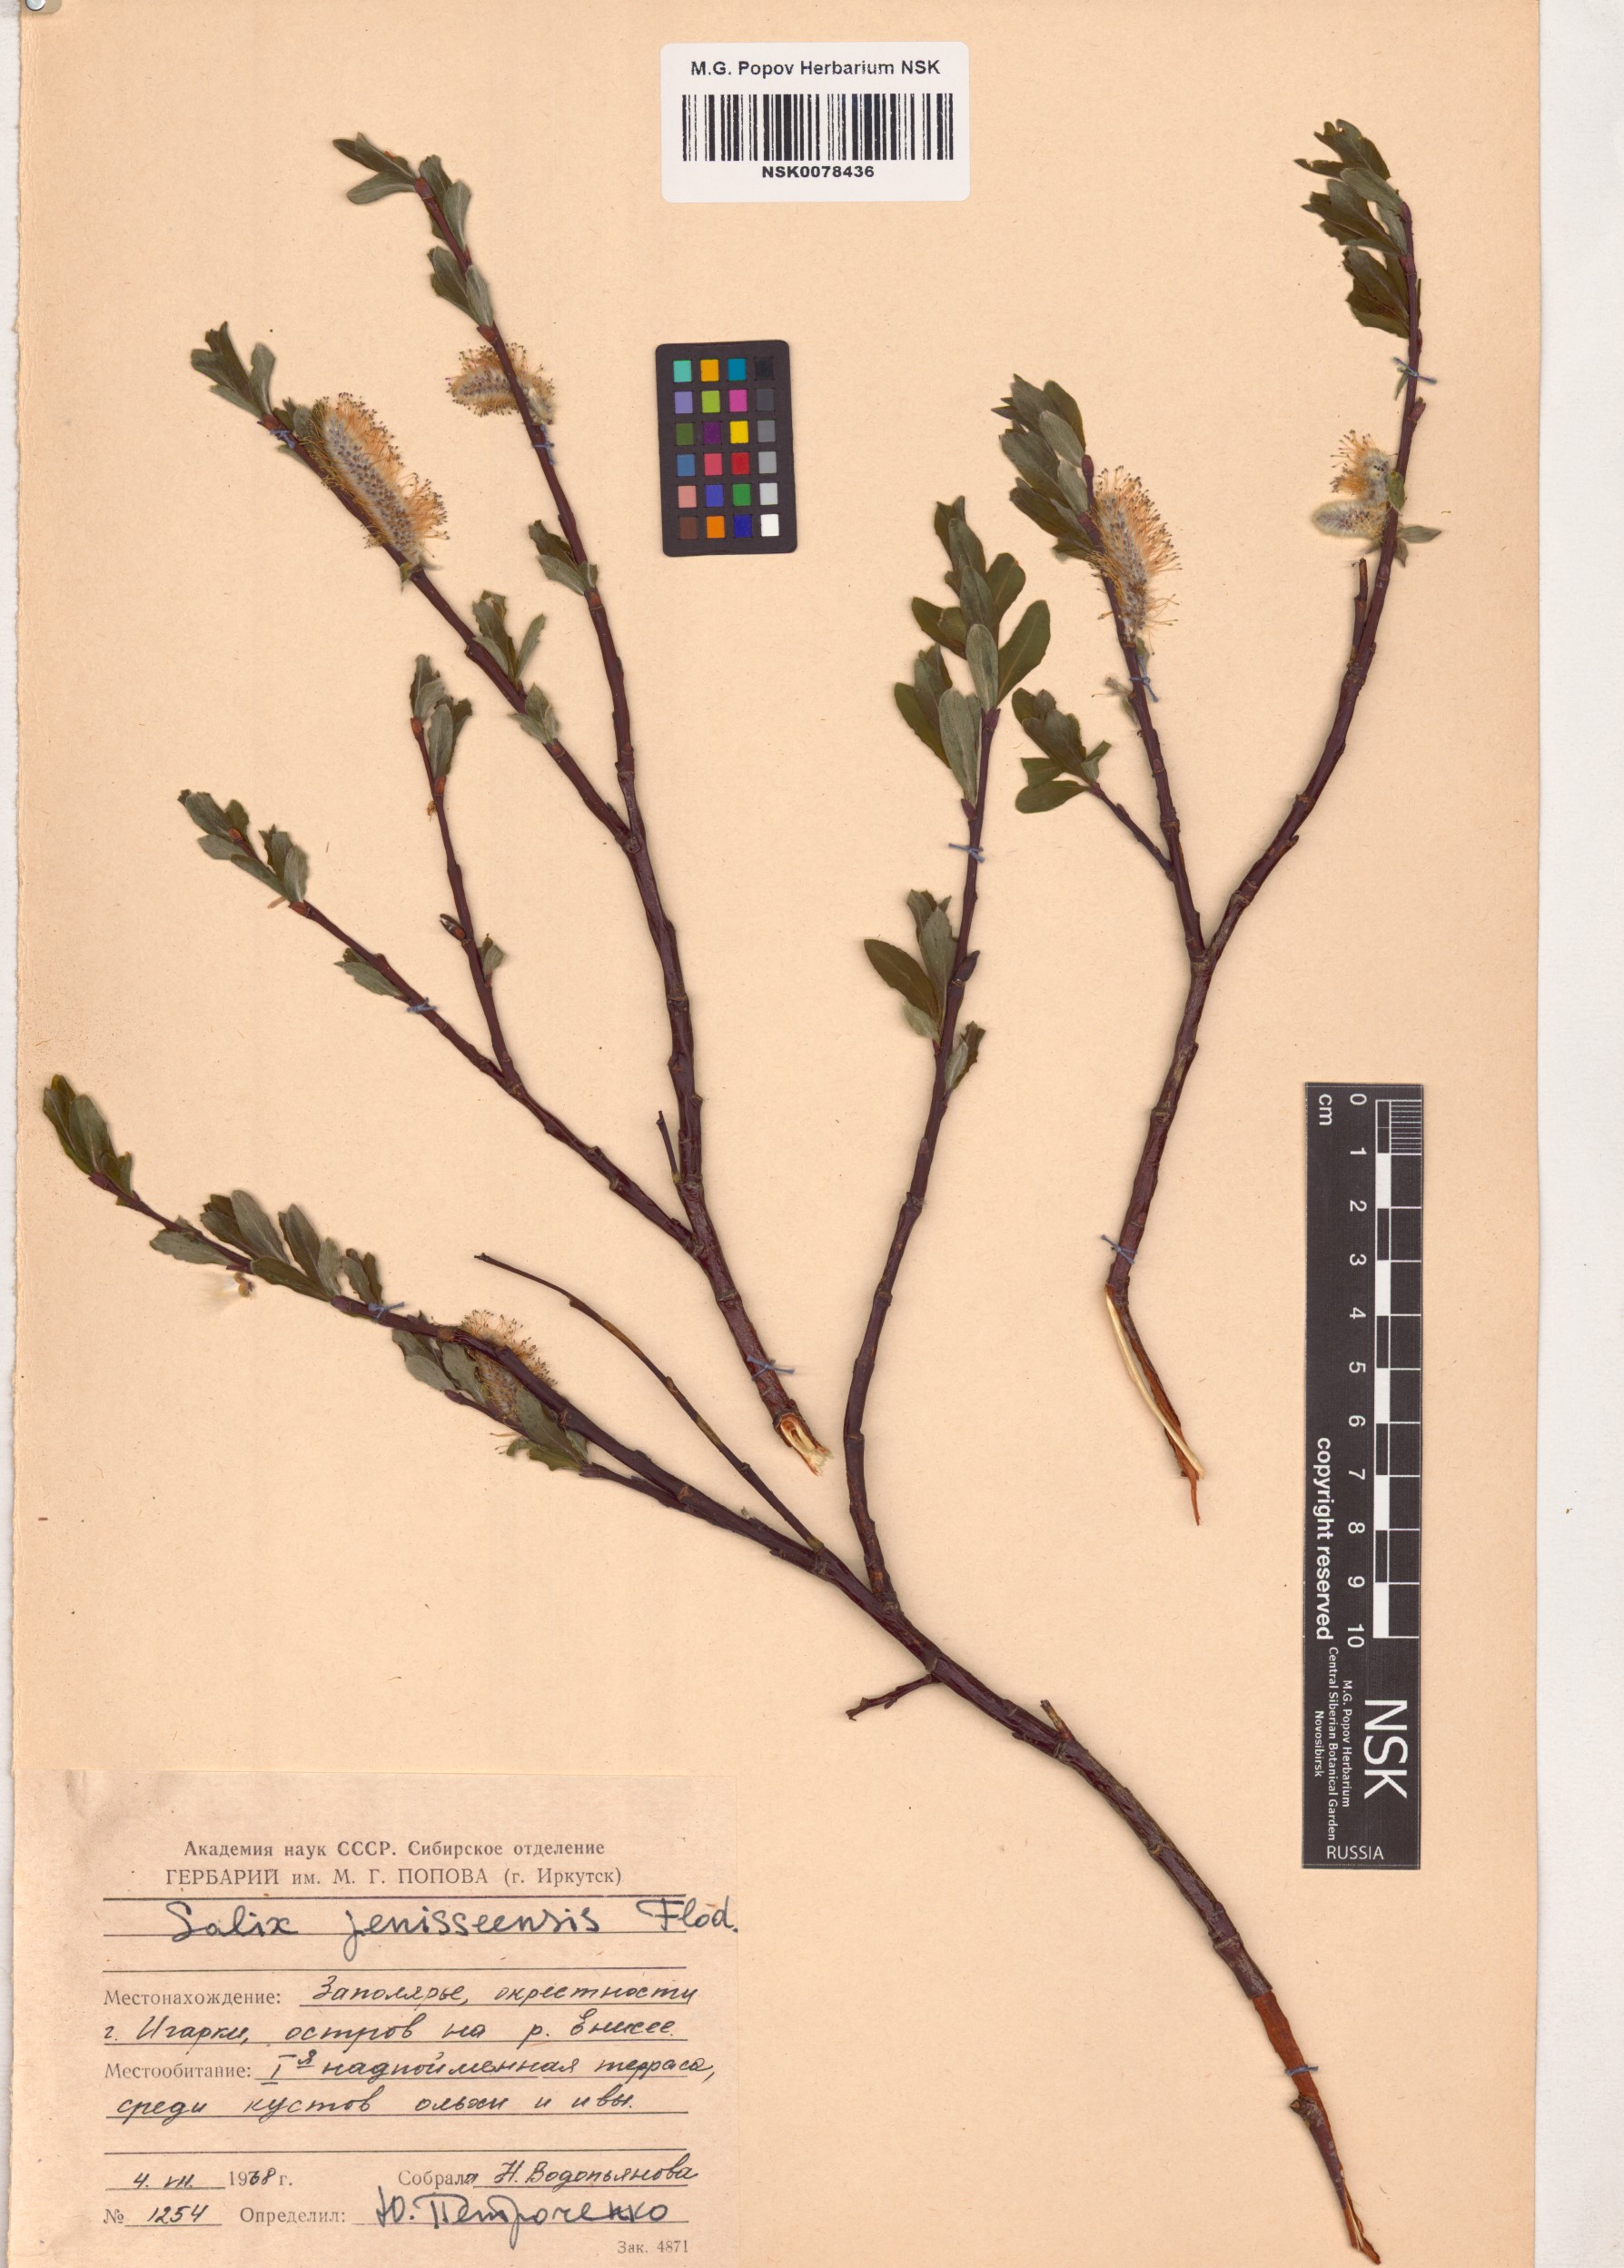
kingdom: Plantae
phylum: Tracheophyta
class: Magnoliopsida
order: Malpighiales
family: Salicaceae
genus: Salix
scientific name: Salix jenisseensis
